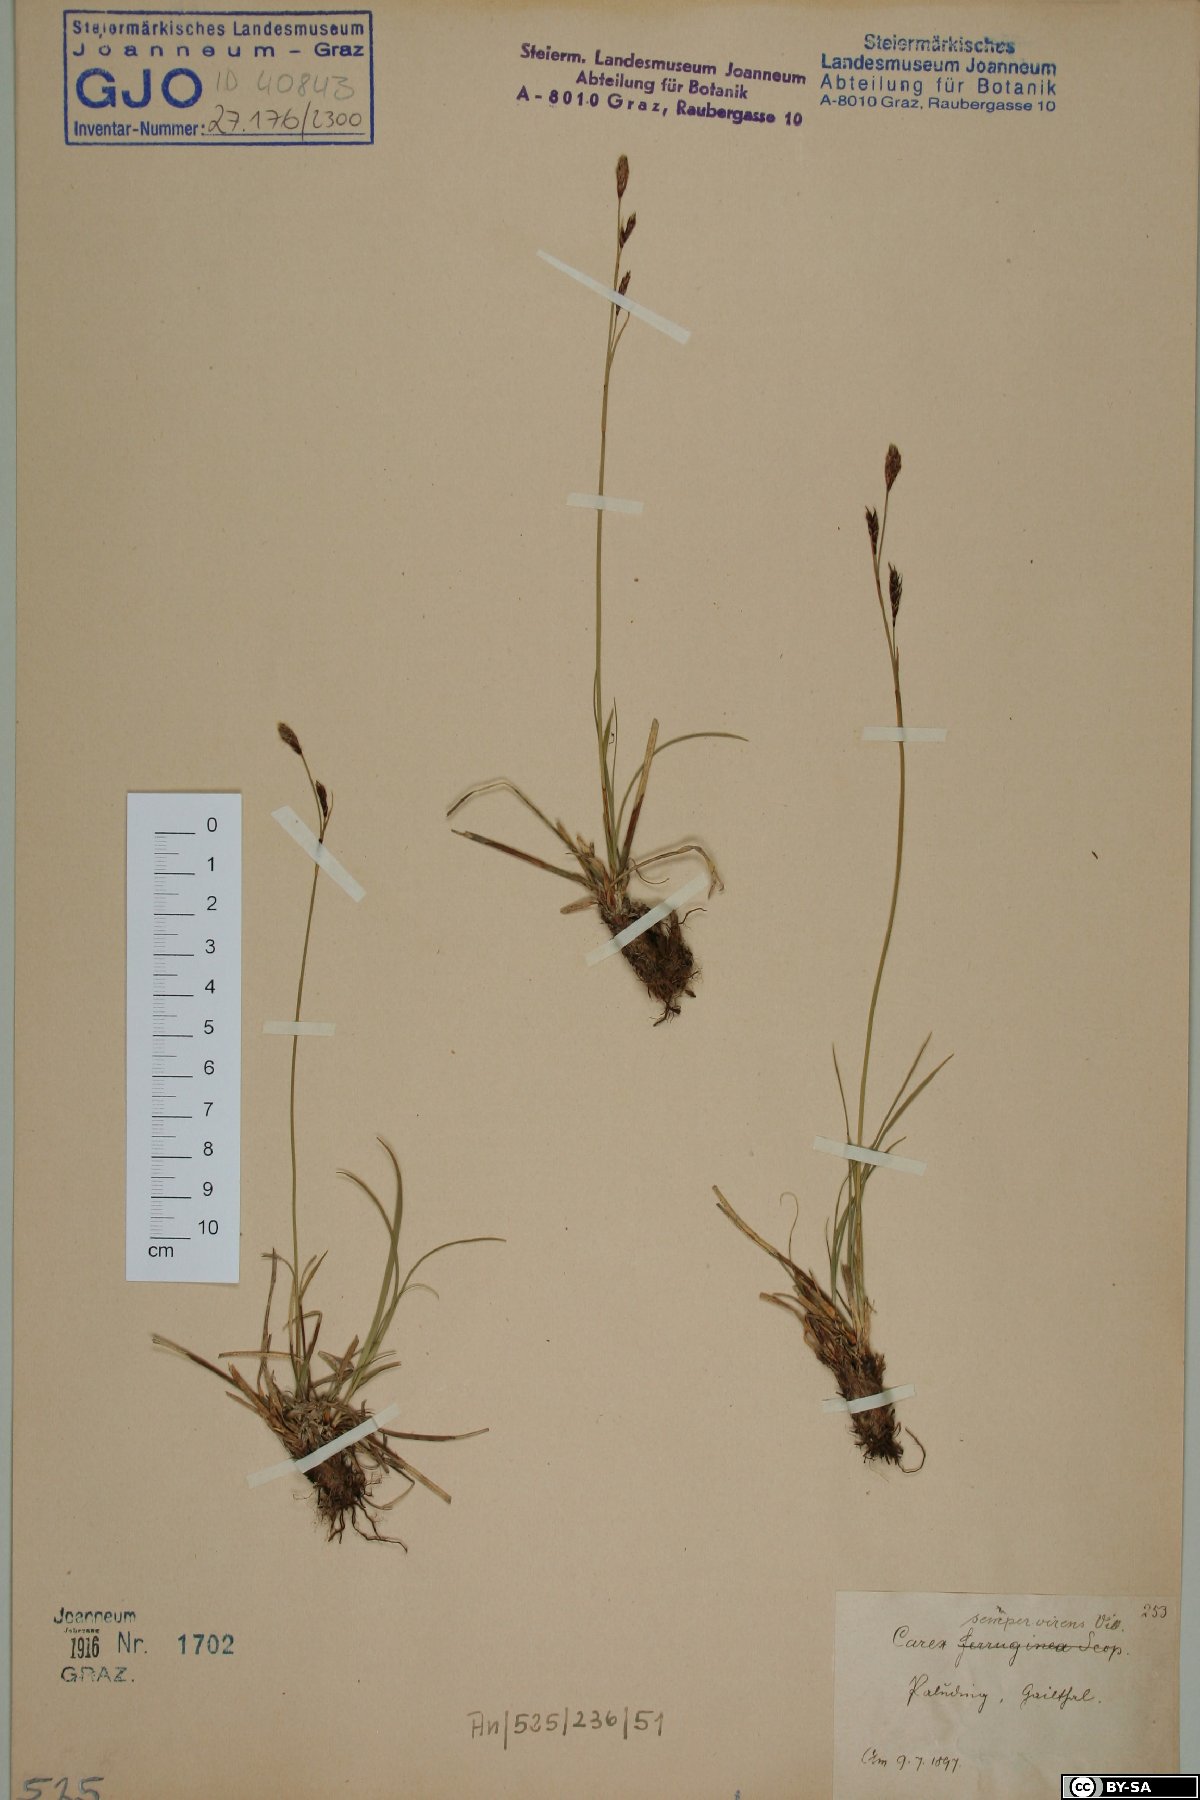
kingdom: Plantae
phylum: Tracheophyta
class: Liliopsida
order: Poales
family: Cyperaceae
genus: Carex
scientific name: Carex sempervirens
